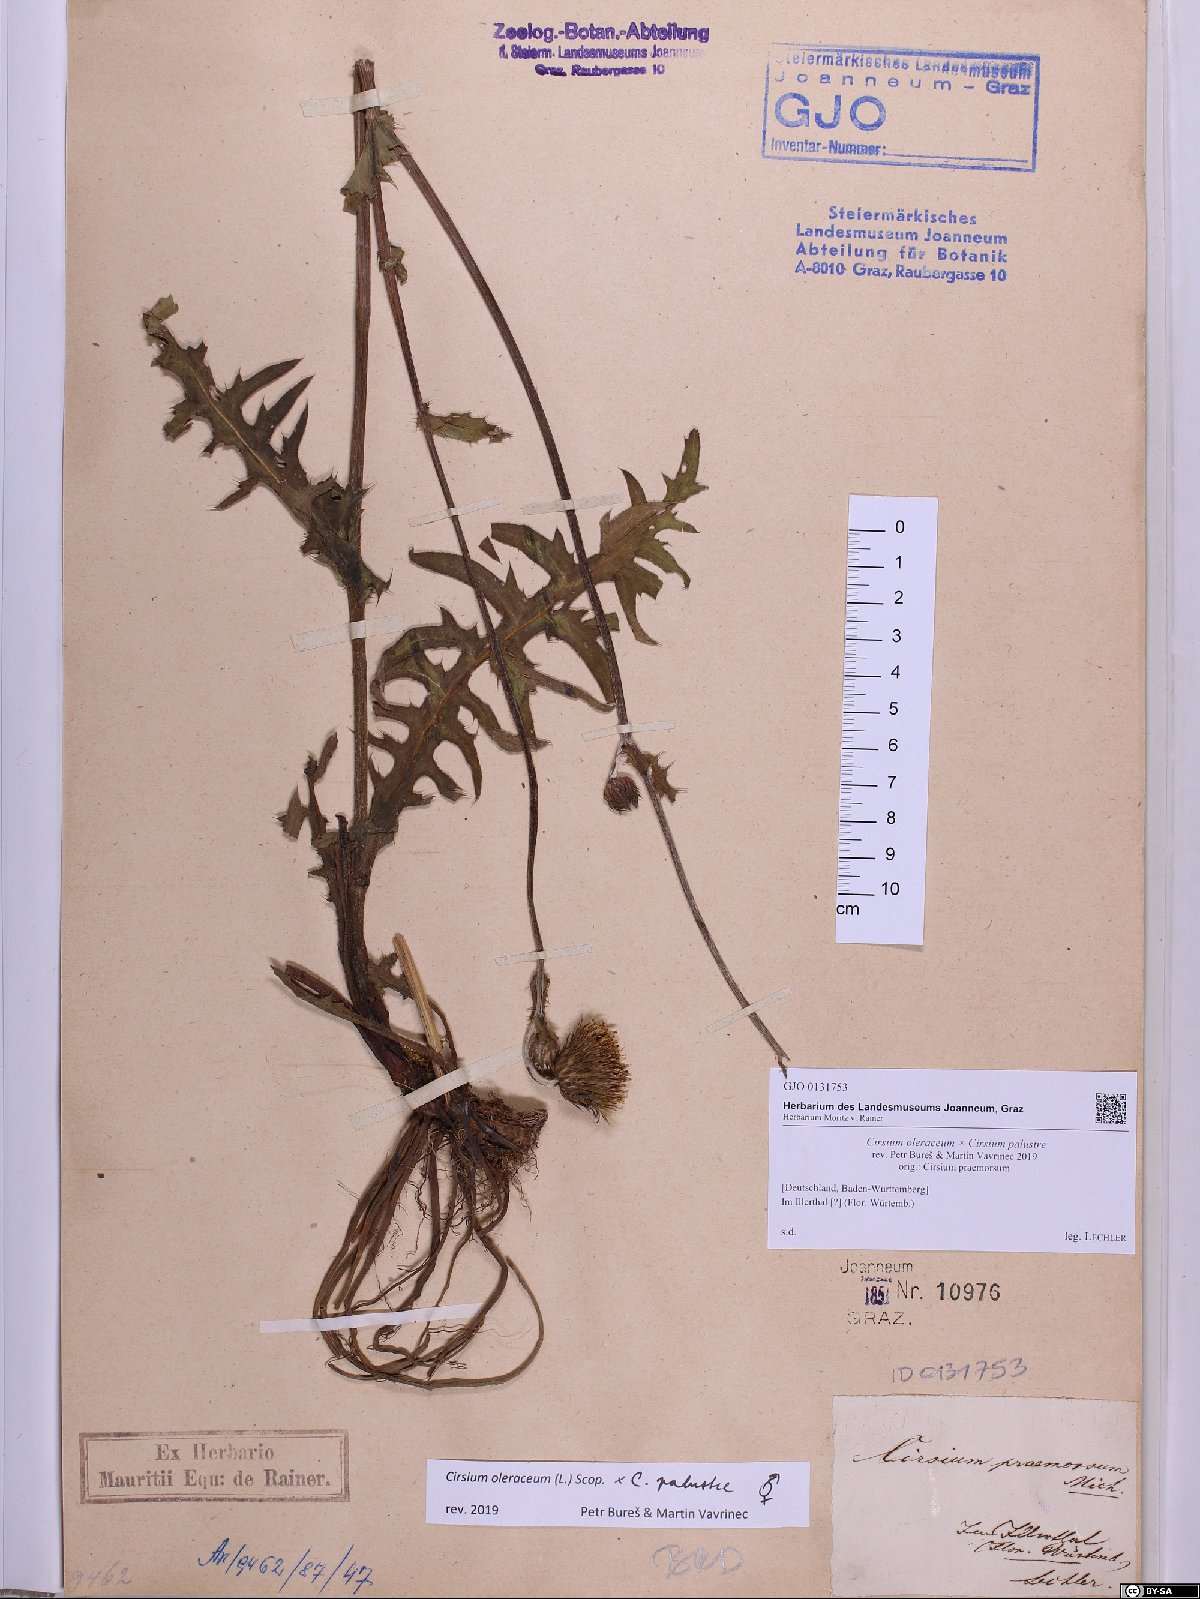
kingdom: Plantae
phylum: Tracheophyta
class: Magnoliopsida
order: Asterales
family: Asteraceae
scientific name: Asteraceae
